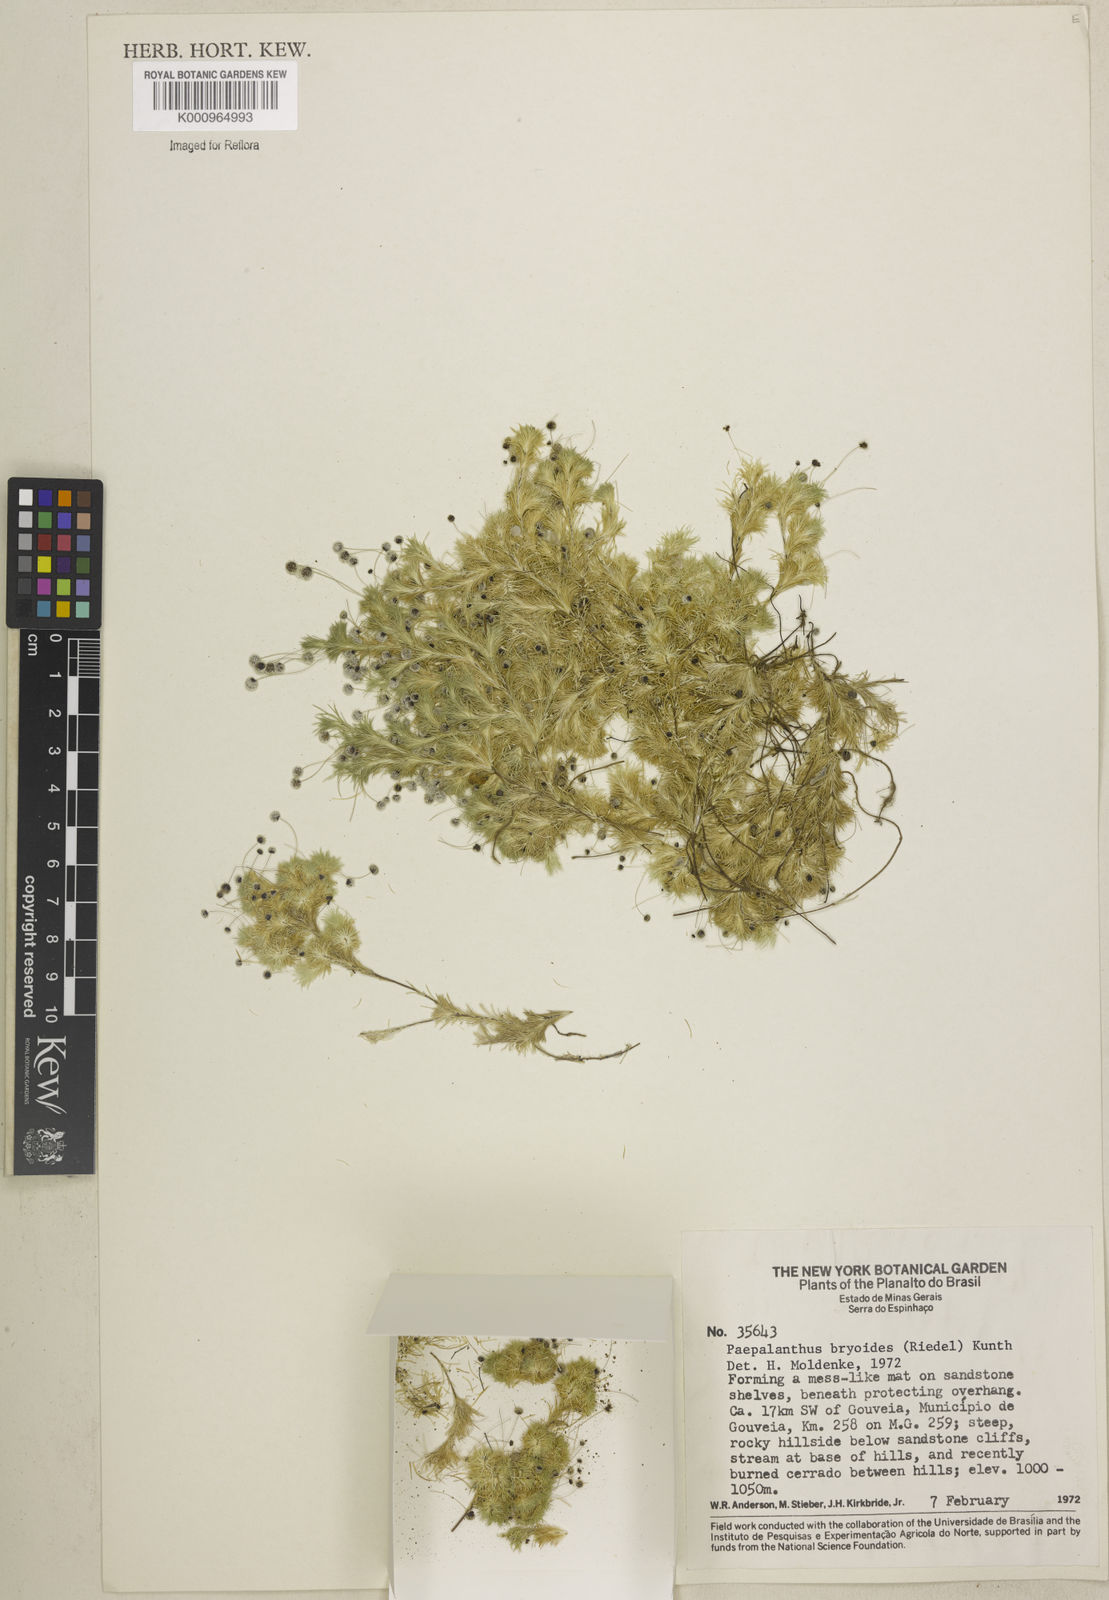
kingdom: Plantae
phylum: Tracheophyta
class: Liliopsida
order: Poales
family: Eriocaulaceae
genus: Paepalanthus
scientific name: Paepalanthus bryoides
